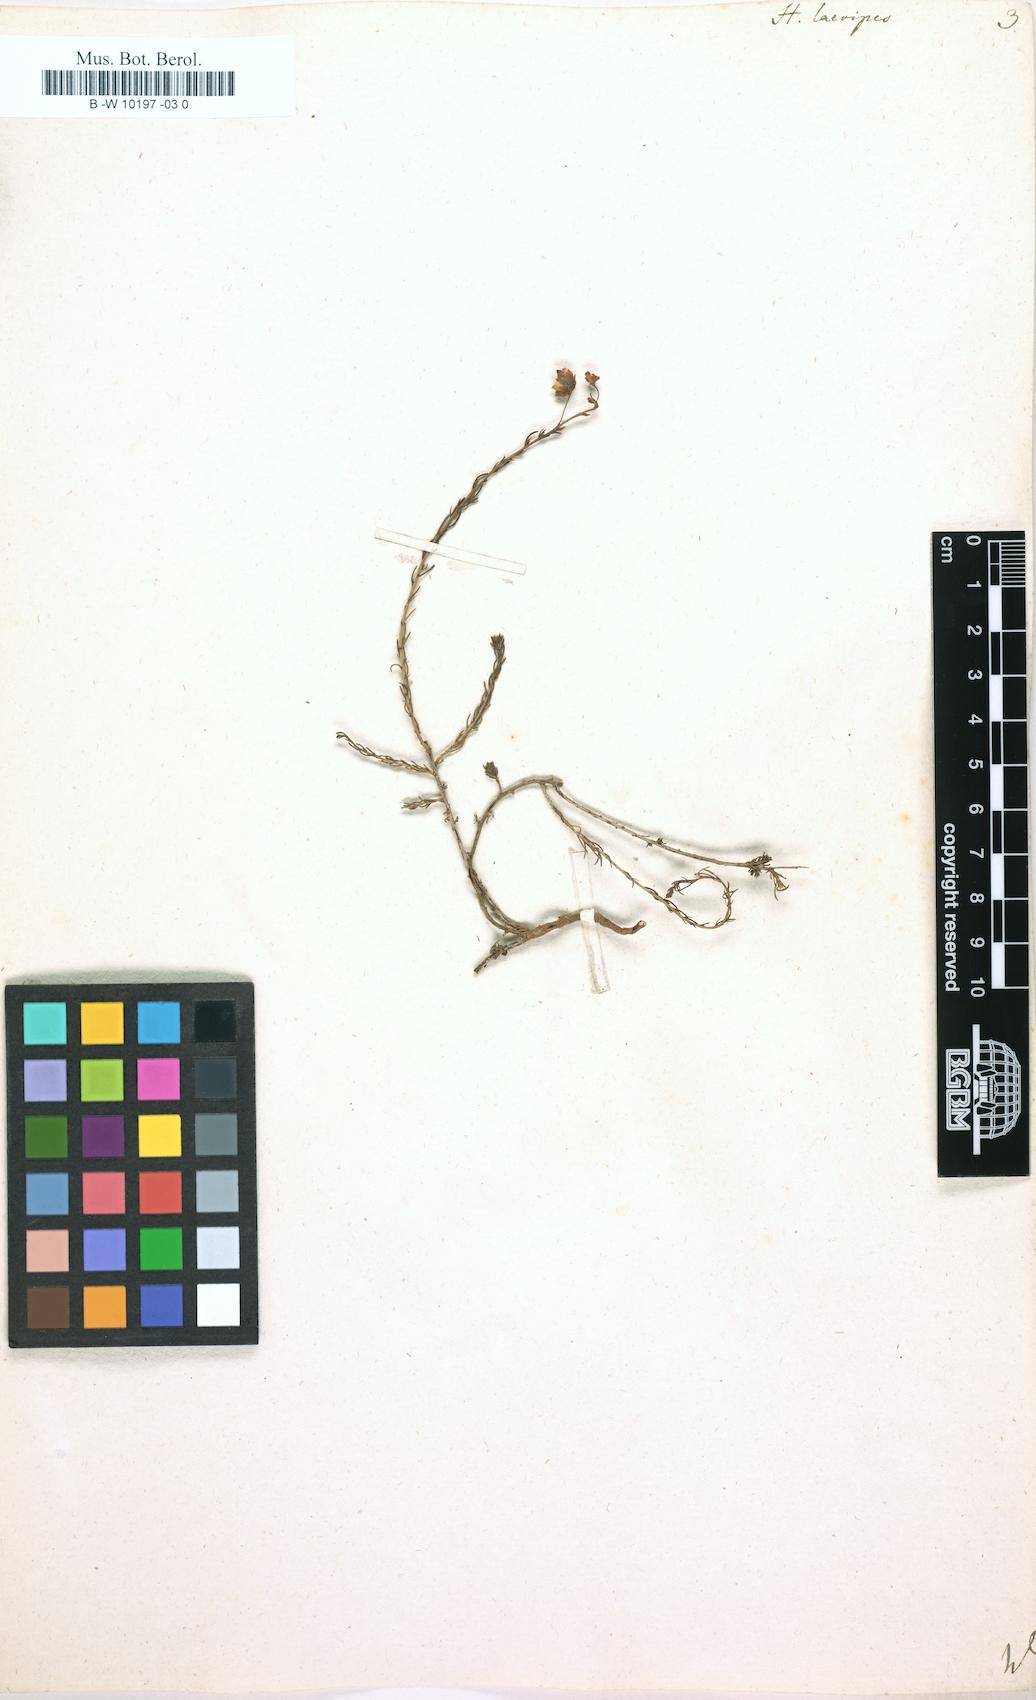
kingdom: Plantae
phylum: Tracheophyta
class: Magnoliopsida
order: Malvales
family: Cistaceae
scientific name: Cistaceae
